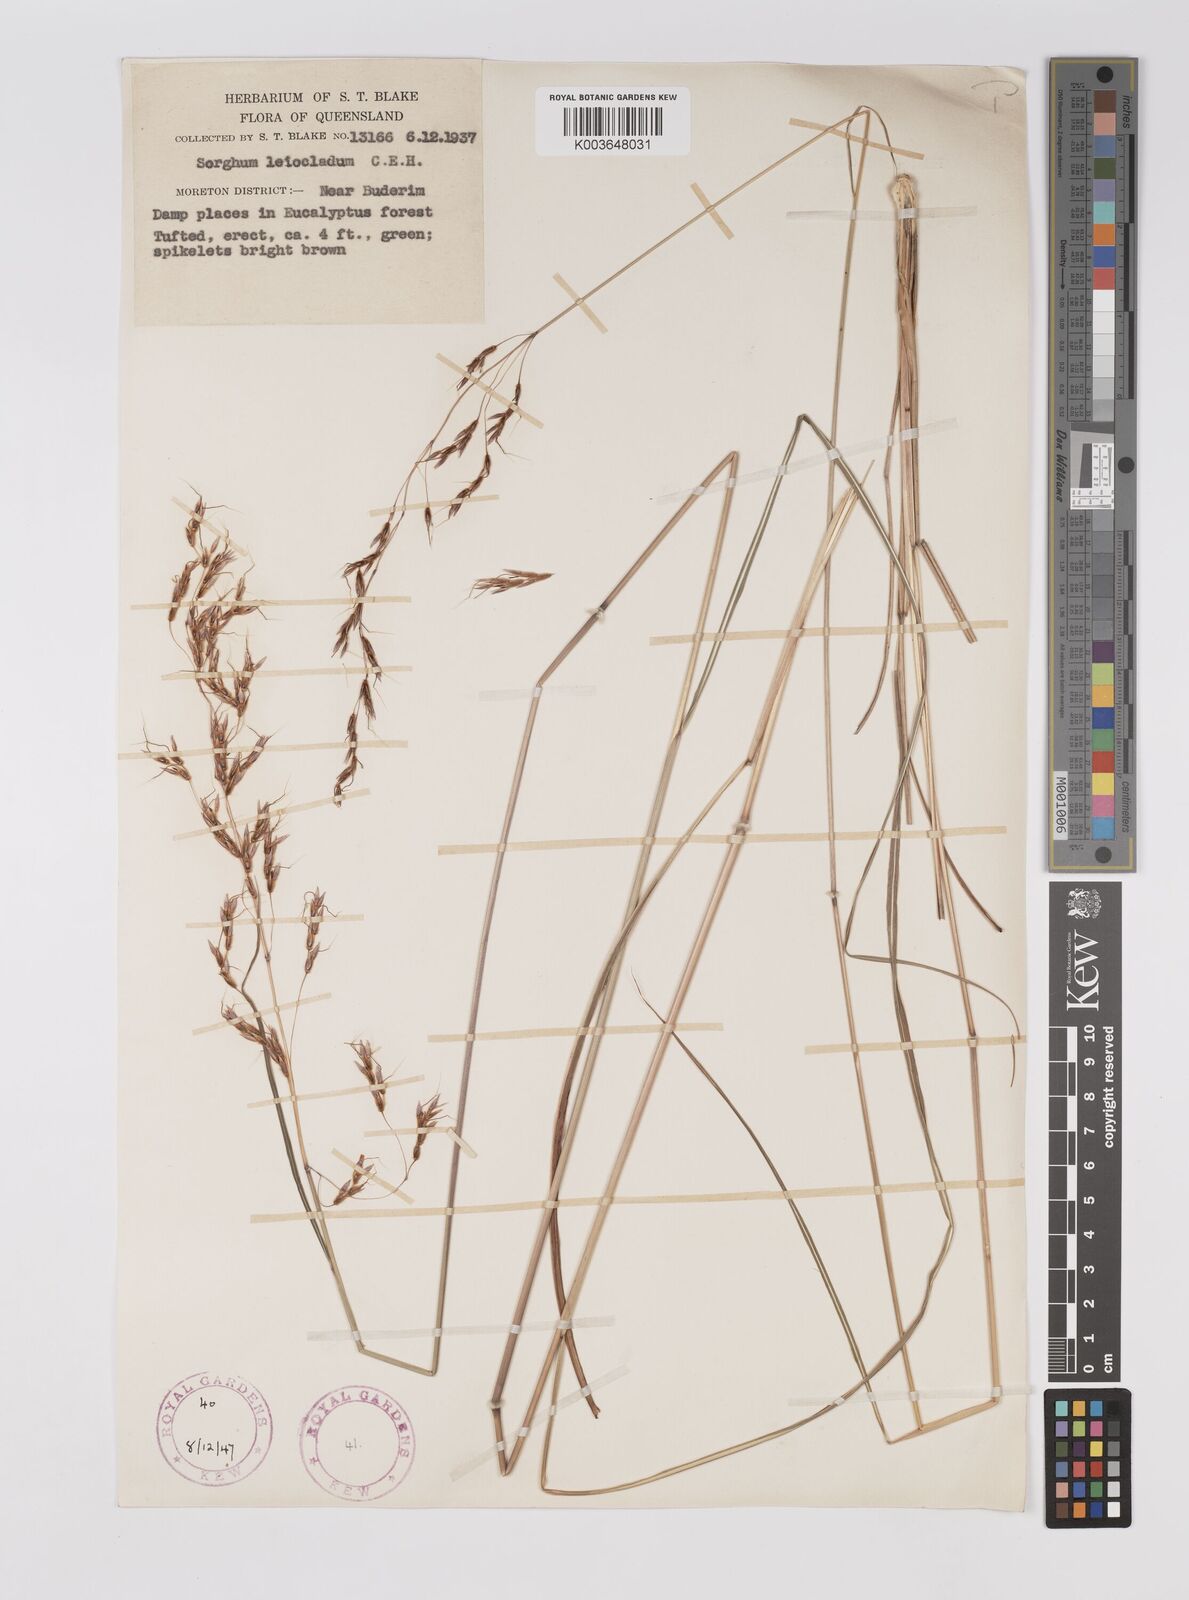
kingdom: Plantae
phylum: Tracheophyta
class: Liliopsida
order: Poales
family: Poaceae
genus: Sarga
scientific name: Sarga leioclada
